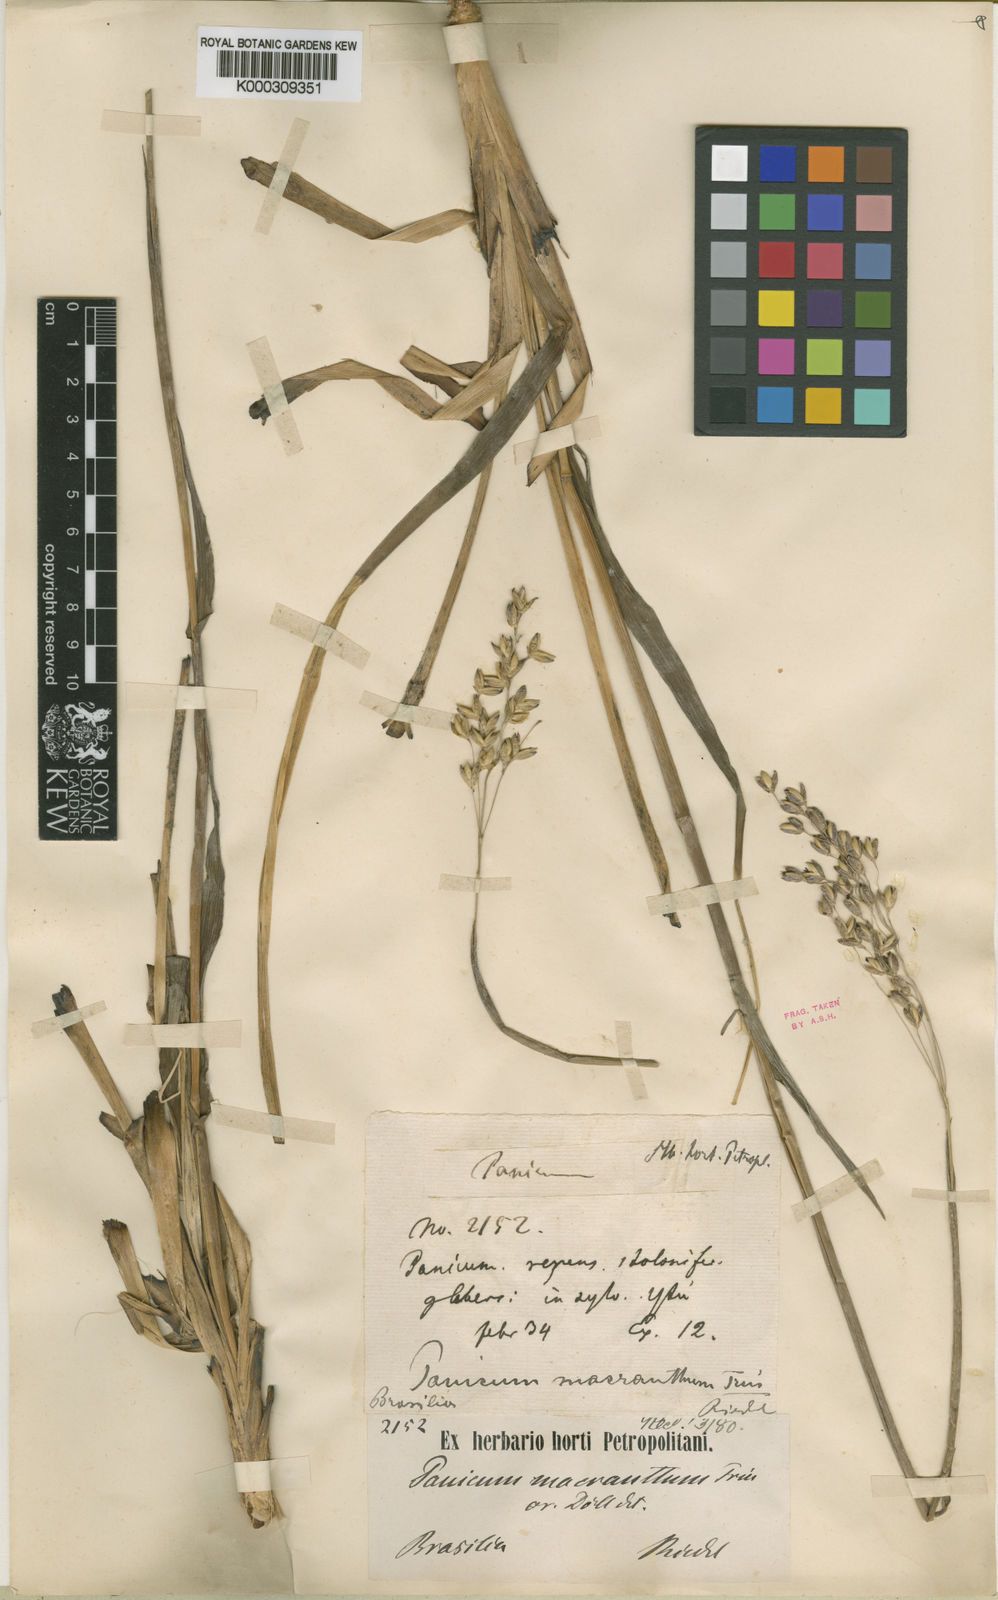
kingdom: Plantae
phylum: Tracheophyta
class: Liliopsida
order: Poales
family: Poaceae
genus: Oncorachis
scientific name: Oncorachis macrantha
